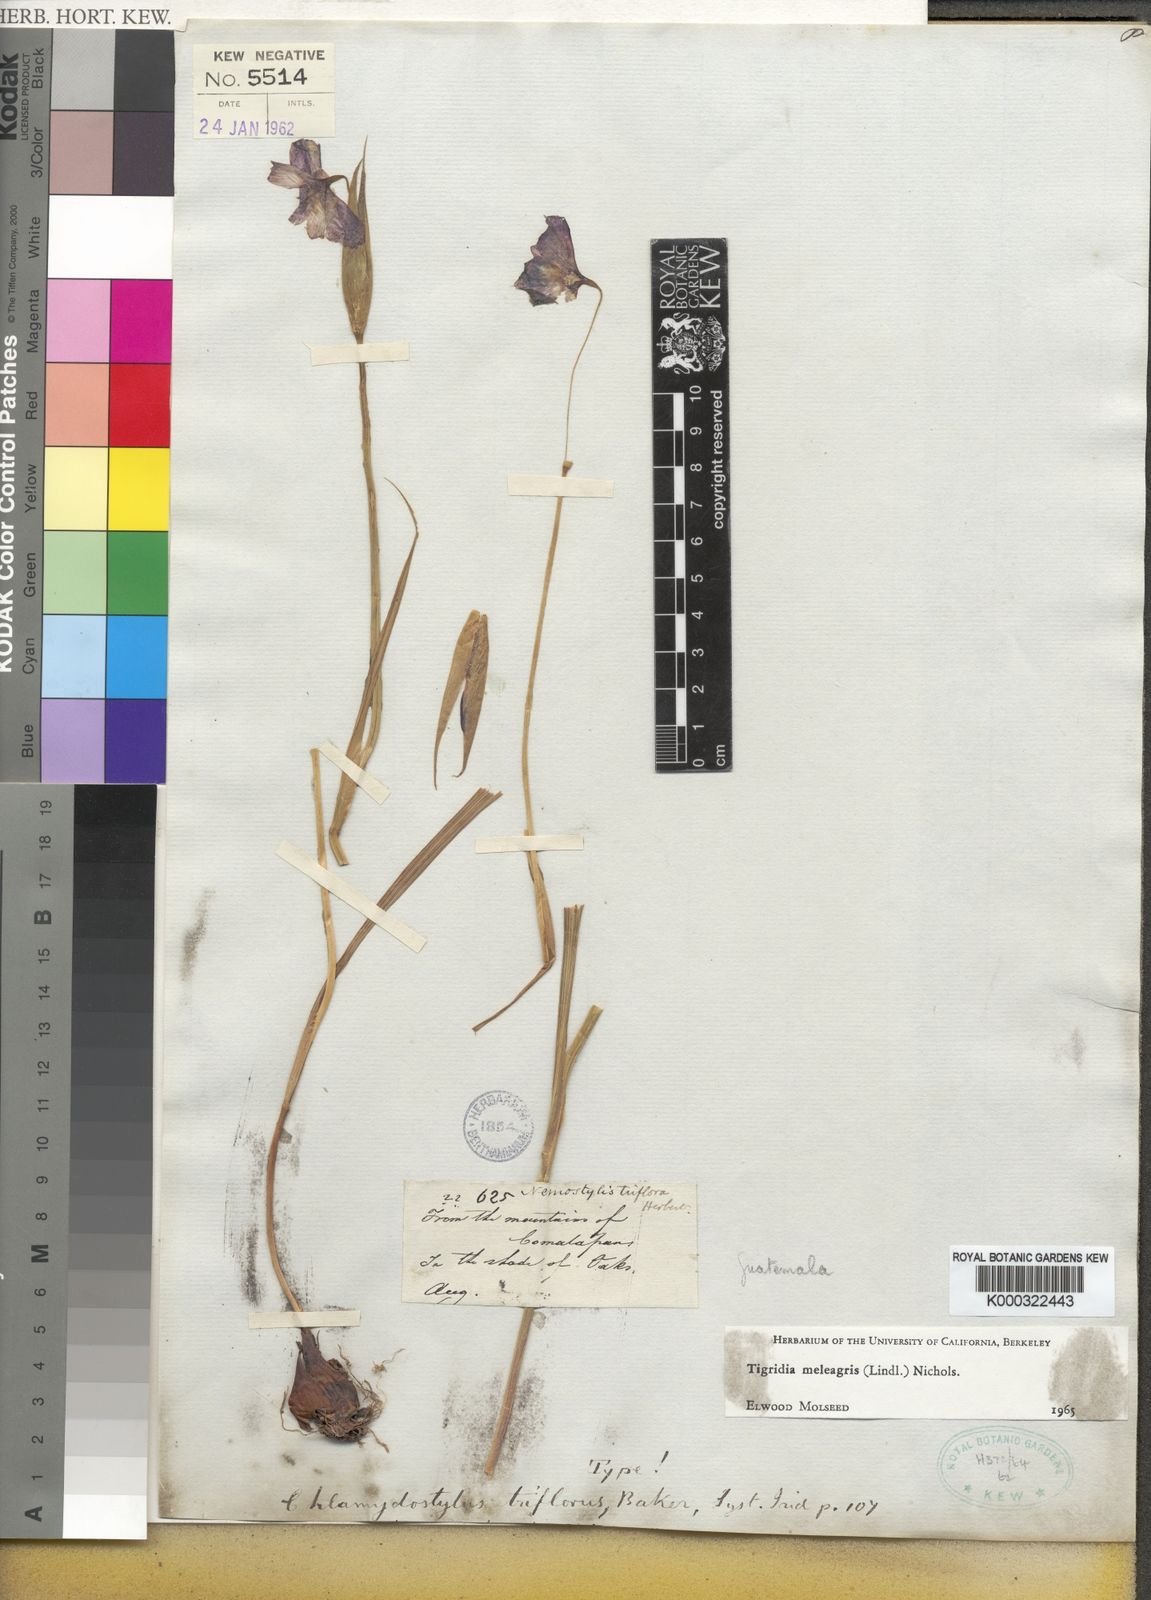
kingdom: Plantae
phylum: Tracheophyta
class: Liliopsida
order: Asparagales
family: Iridaceae
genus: Tigridia
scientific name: Tigridia meleagris
